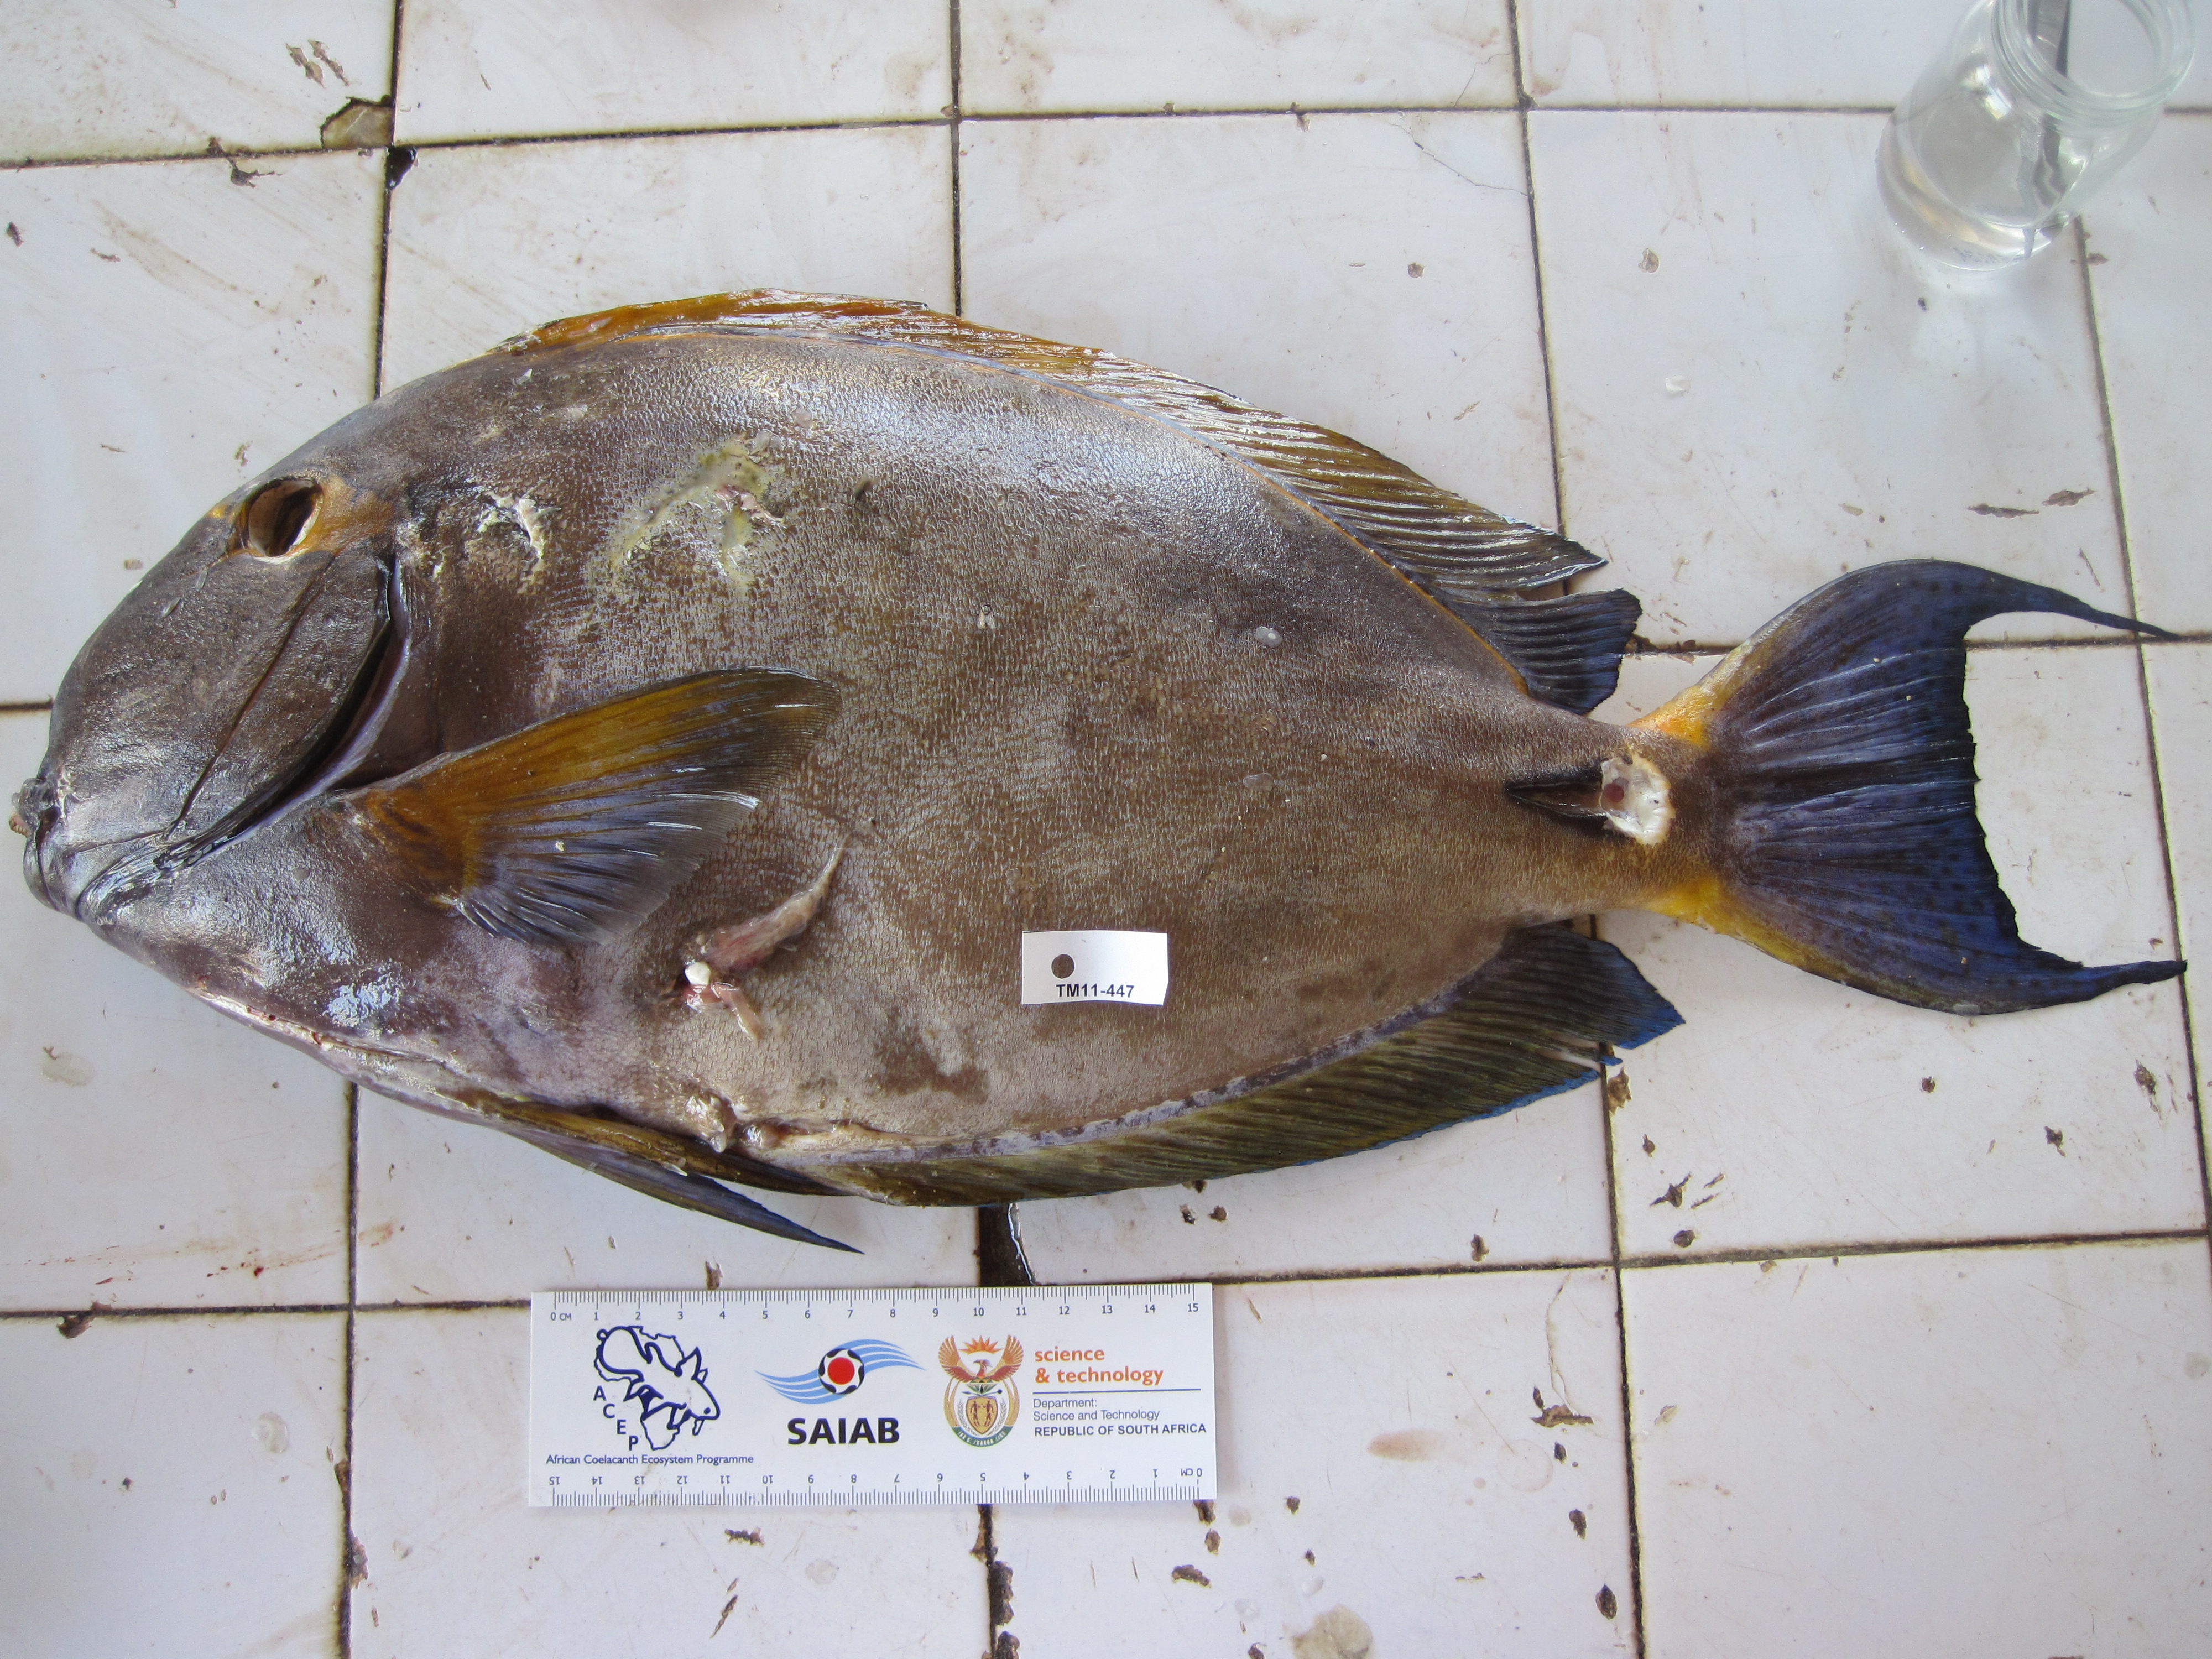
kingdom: Animalia
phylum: Chordata
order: Perciformes
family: Acanthuridae
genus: Acanthurus
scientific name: Acanthurus dussumieri
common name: Dussumier's surgeonfish
